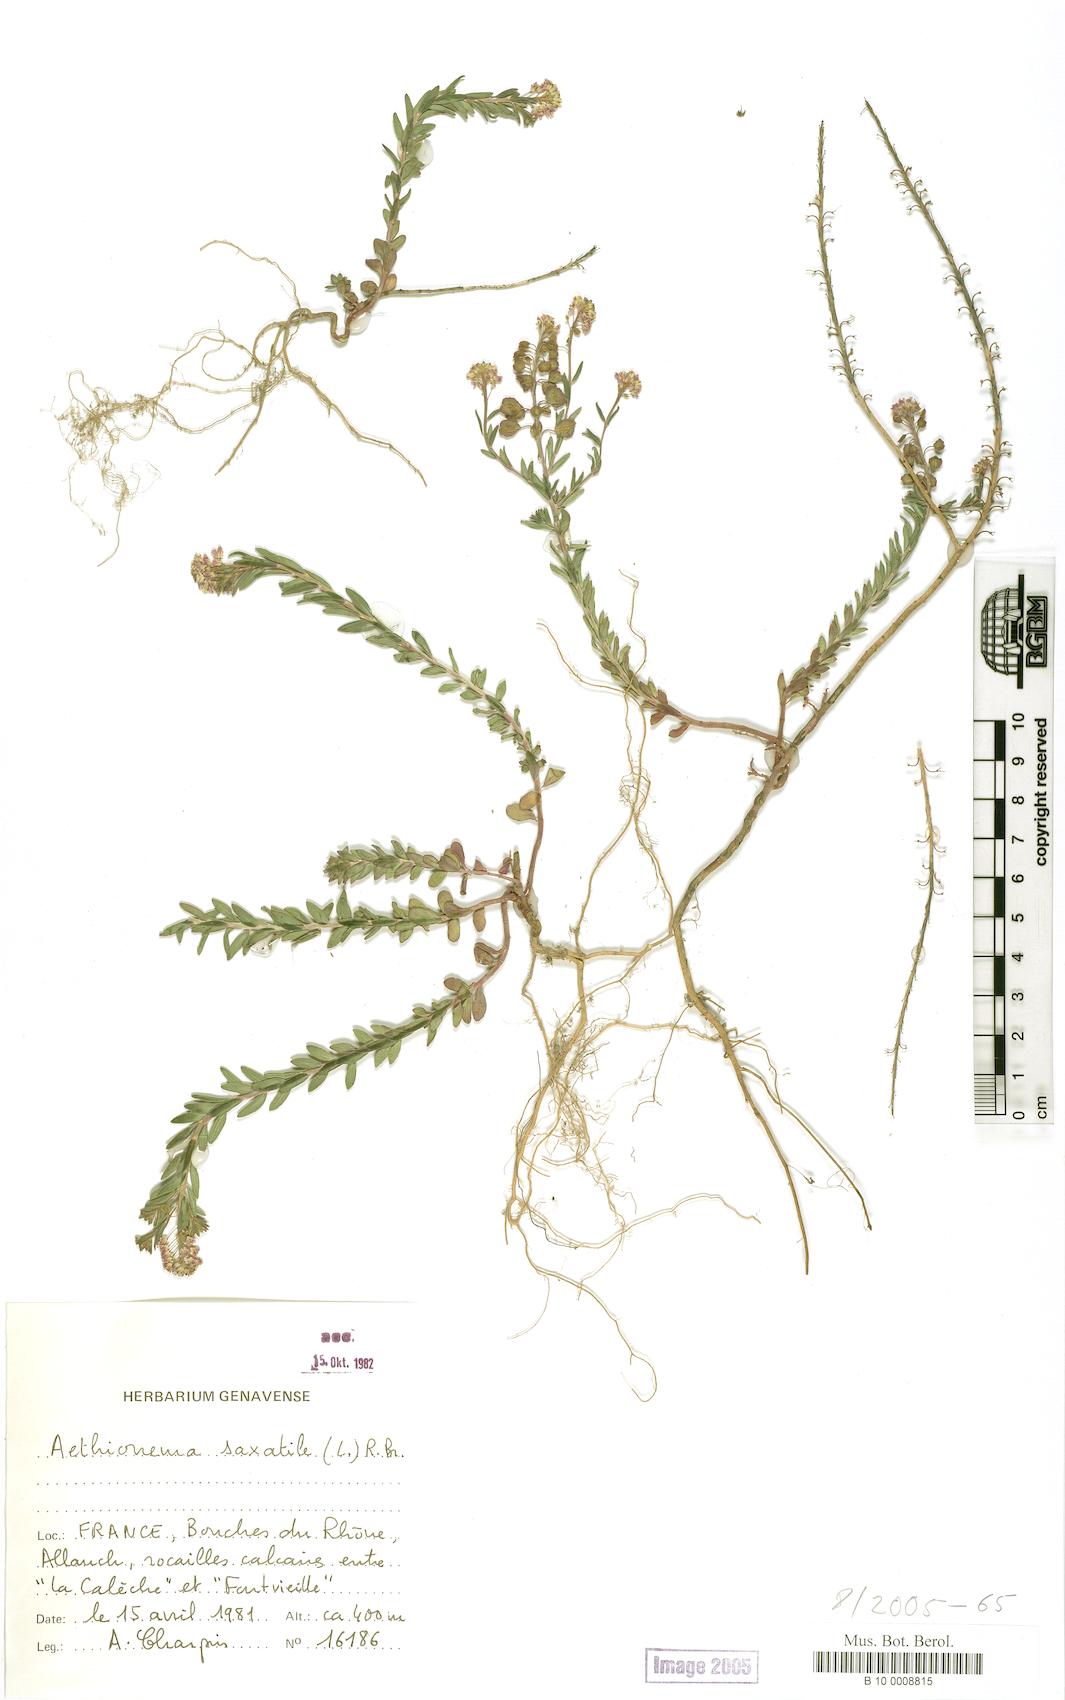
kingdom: Plantae
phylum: Tracheophyta
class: Magnoliopsida
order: Brassicales
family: Brassicaceae
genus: Aethionema
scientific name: Aethionema saxatile
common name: Burnt candytuft
